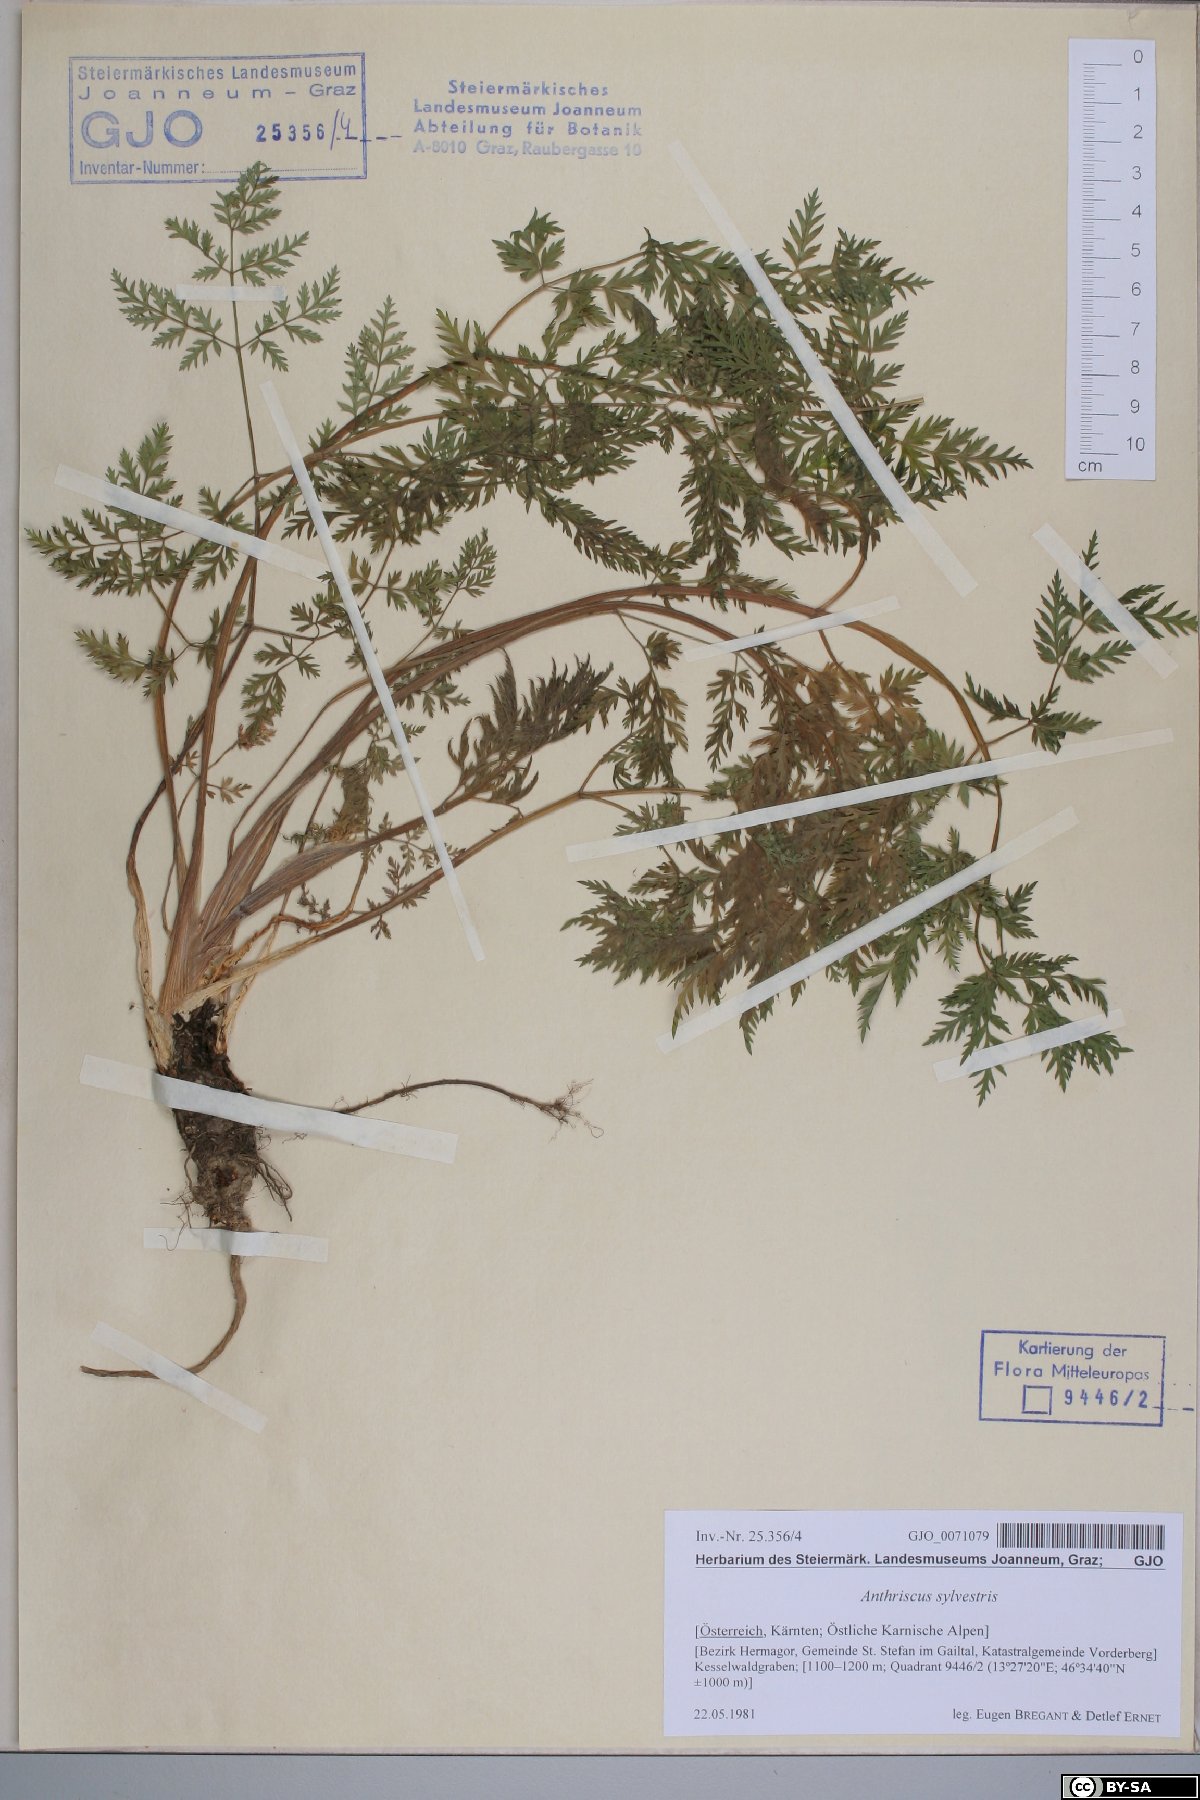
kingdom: Plantae
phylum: Tracheophyta
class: Magnoliopsida
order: Apiales
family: Apiaceae
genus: Anthriscus
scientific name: Anthriscus sylvestris
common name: Cow parsley
